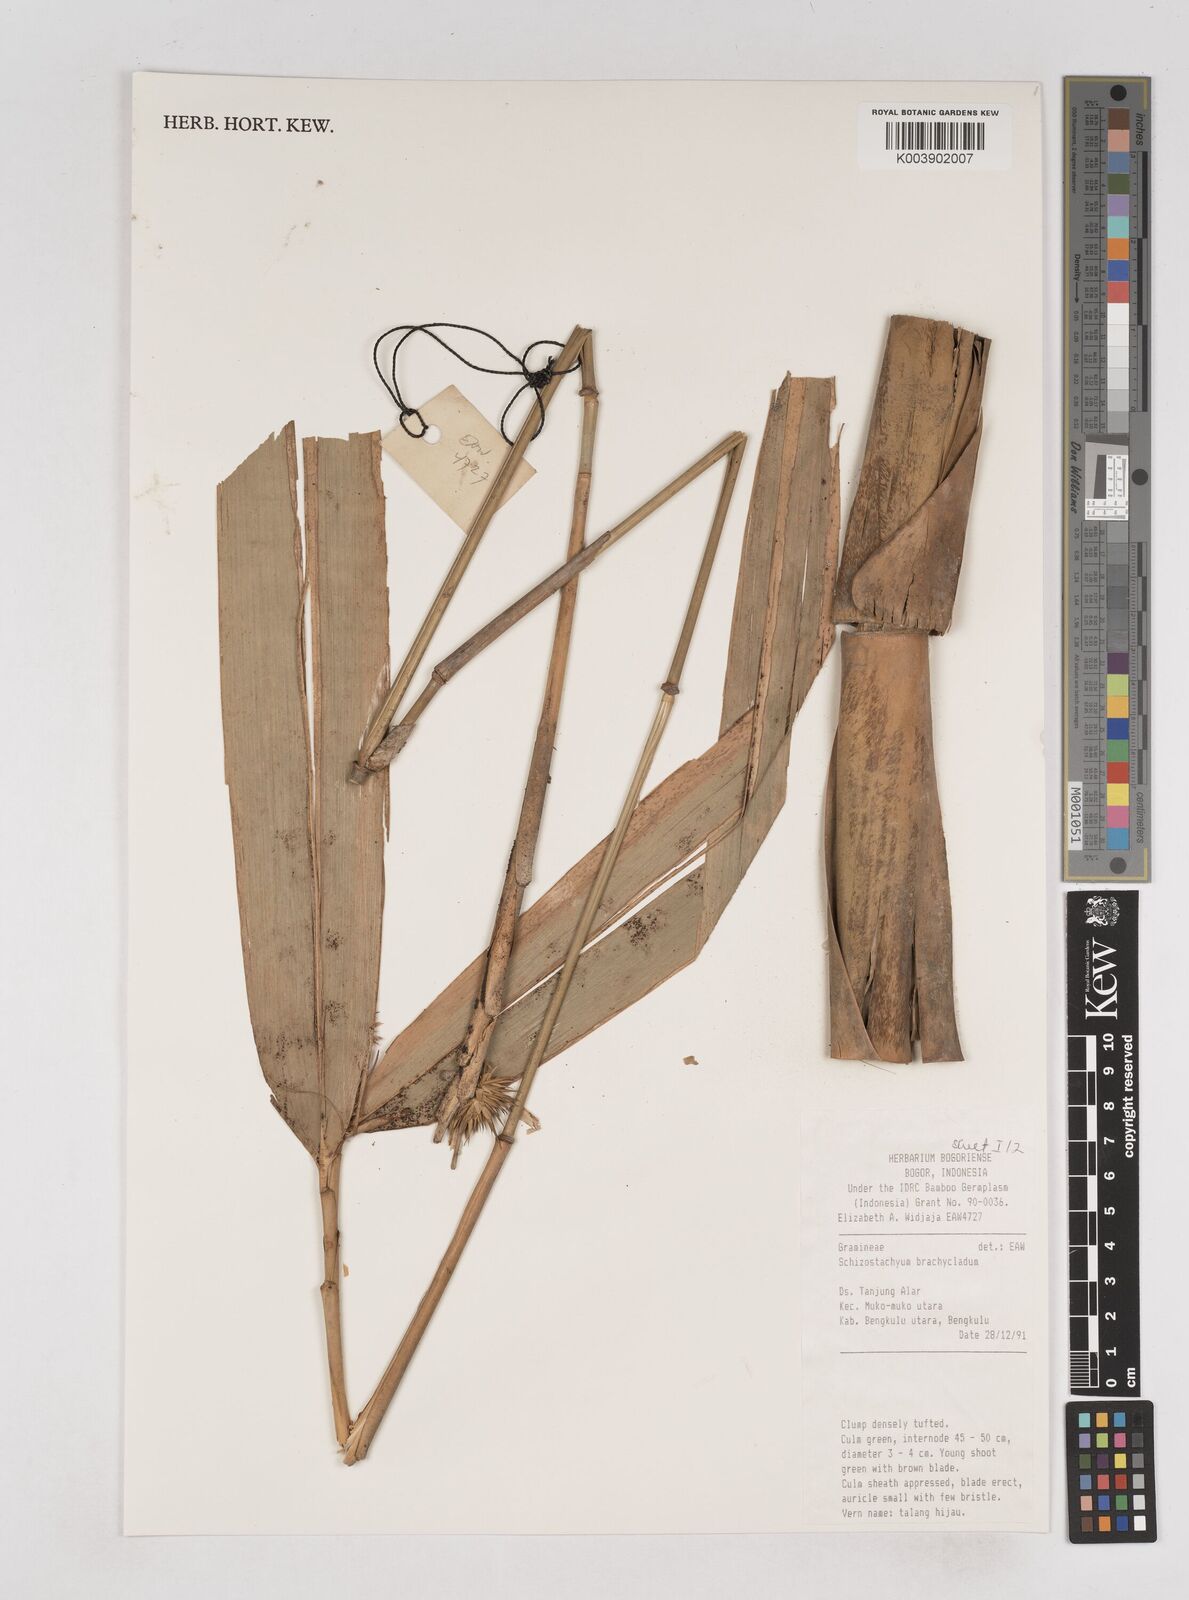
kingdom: Plantae
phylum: Tracheophyta
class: Liliopsida
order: Poales
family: Poaceae
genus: Schizostachyum
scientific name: Schizostachyum brachycladum
